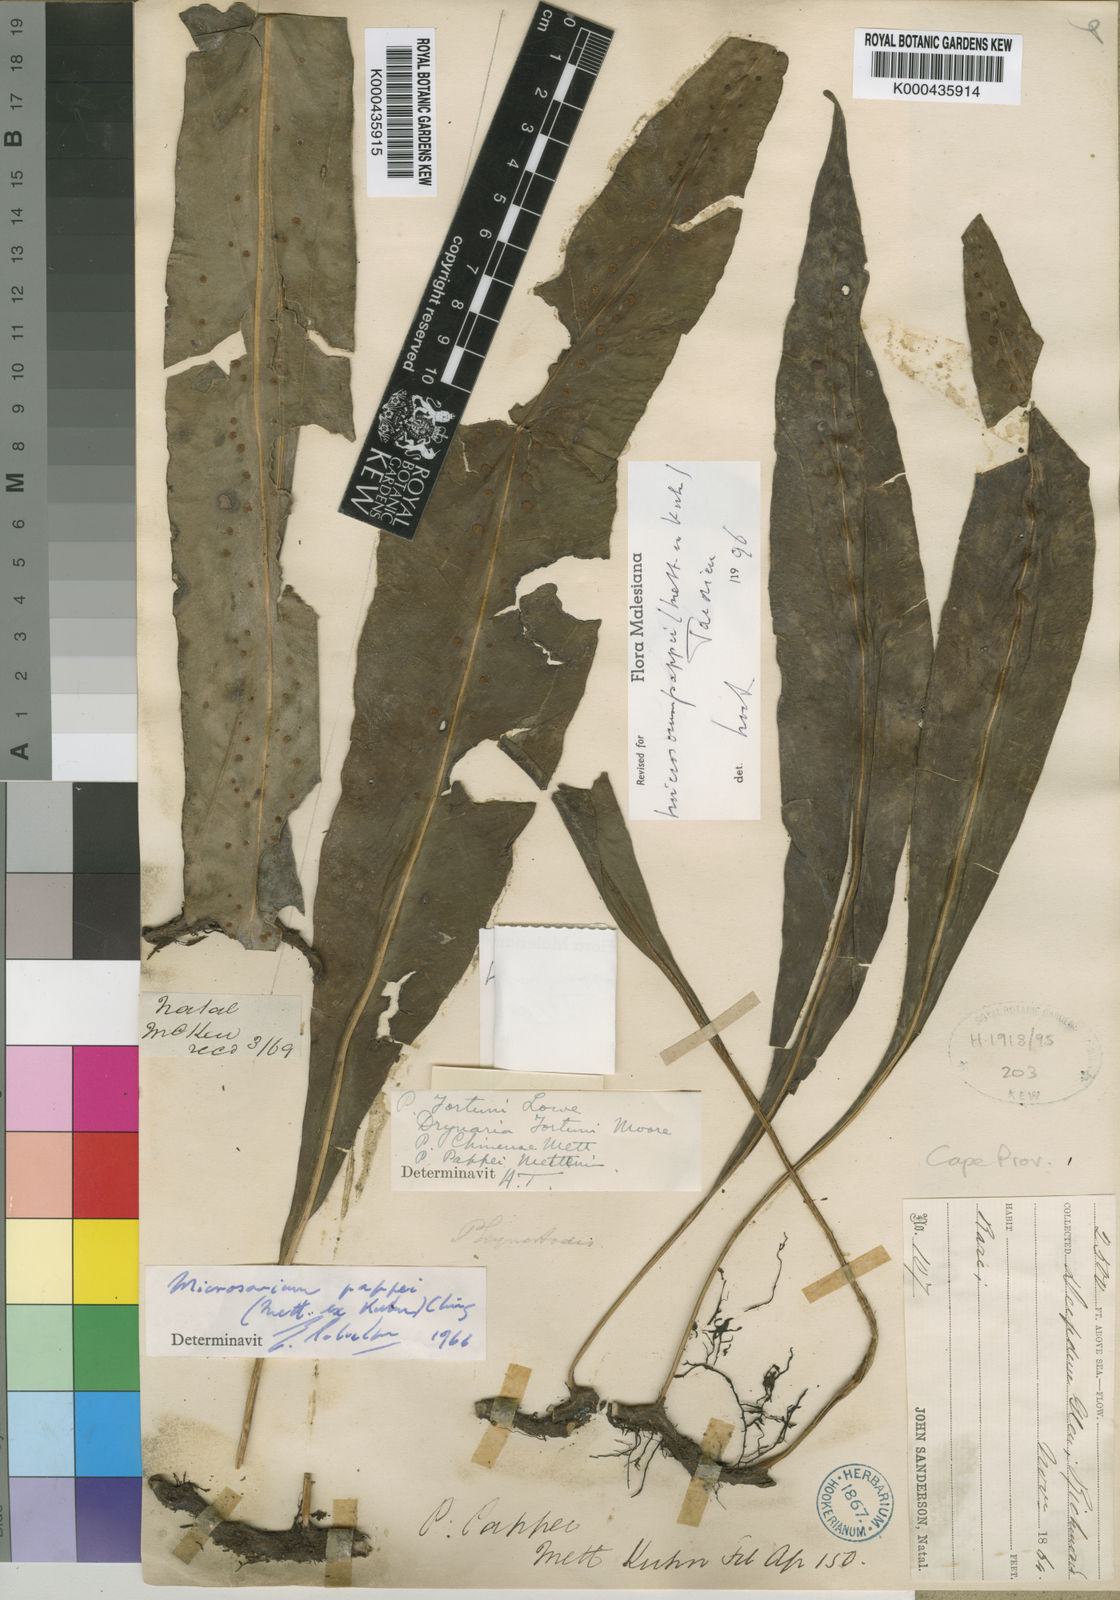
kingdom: Plantae
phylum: Tracheophyta
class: Polypodiopsida
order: Polypodiales
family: Polypodiaceae
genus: Microsorum
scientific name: Microsorum pappei
